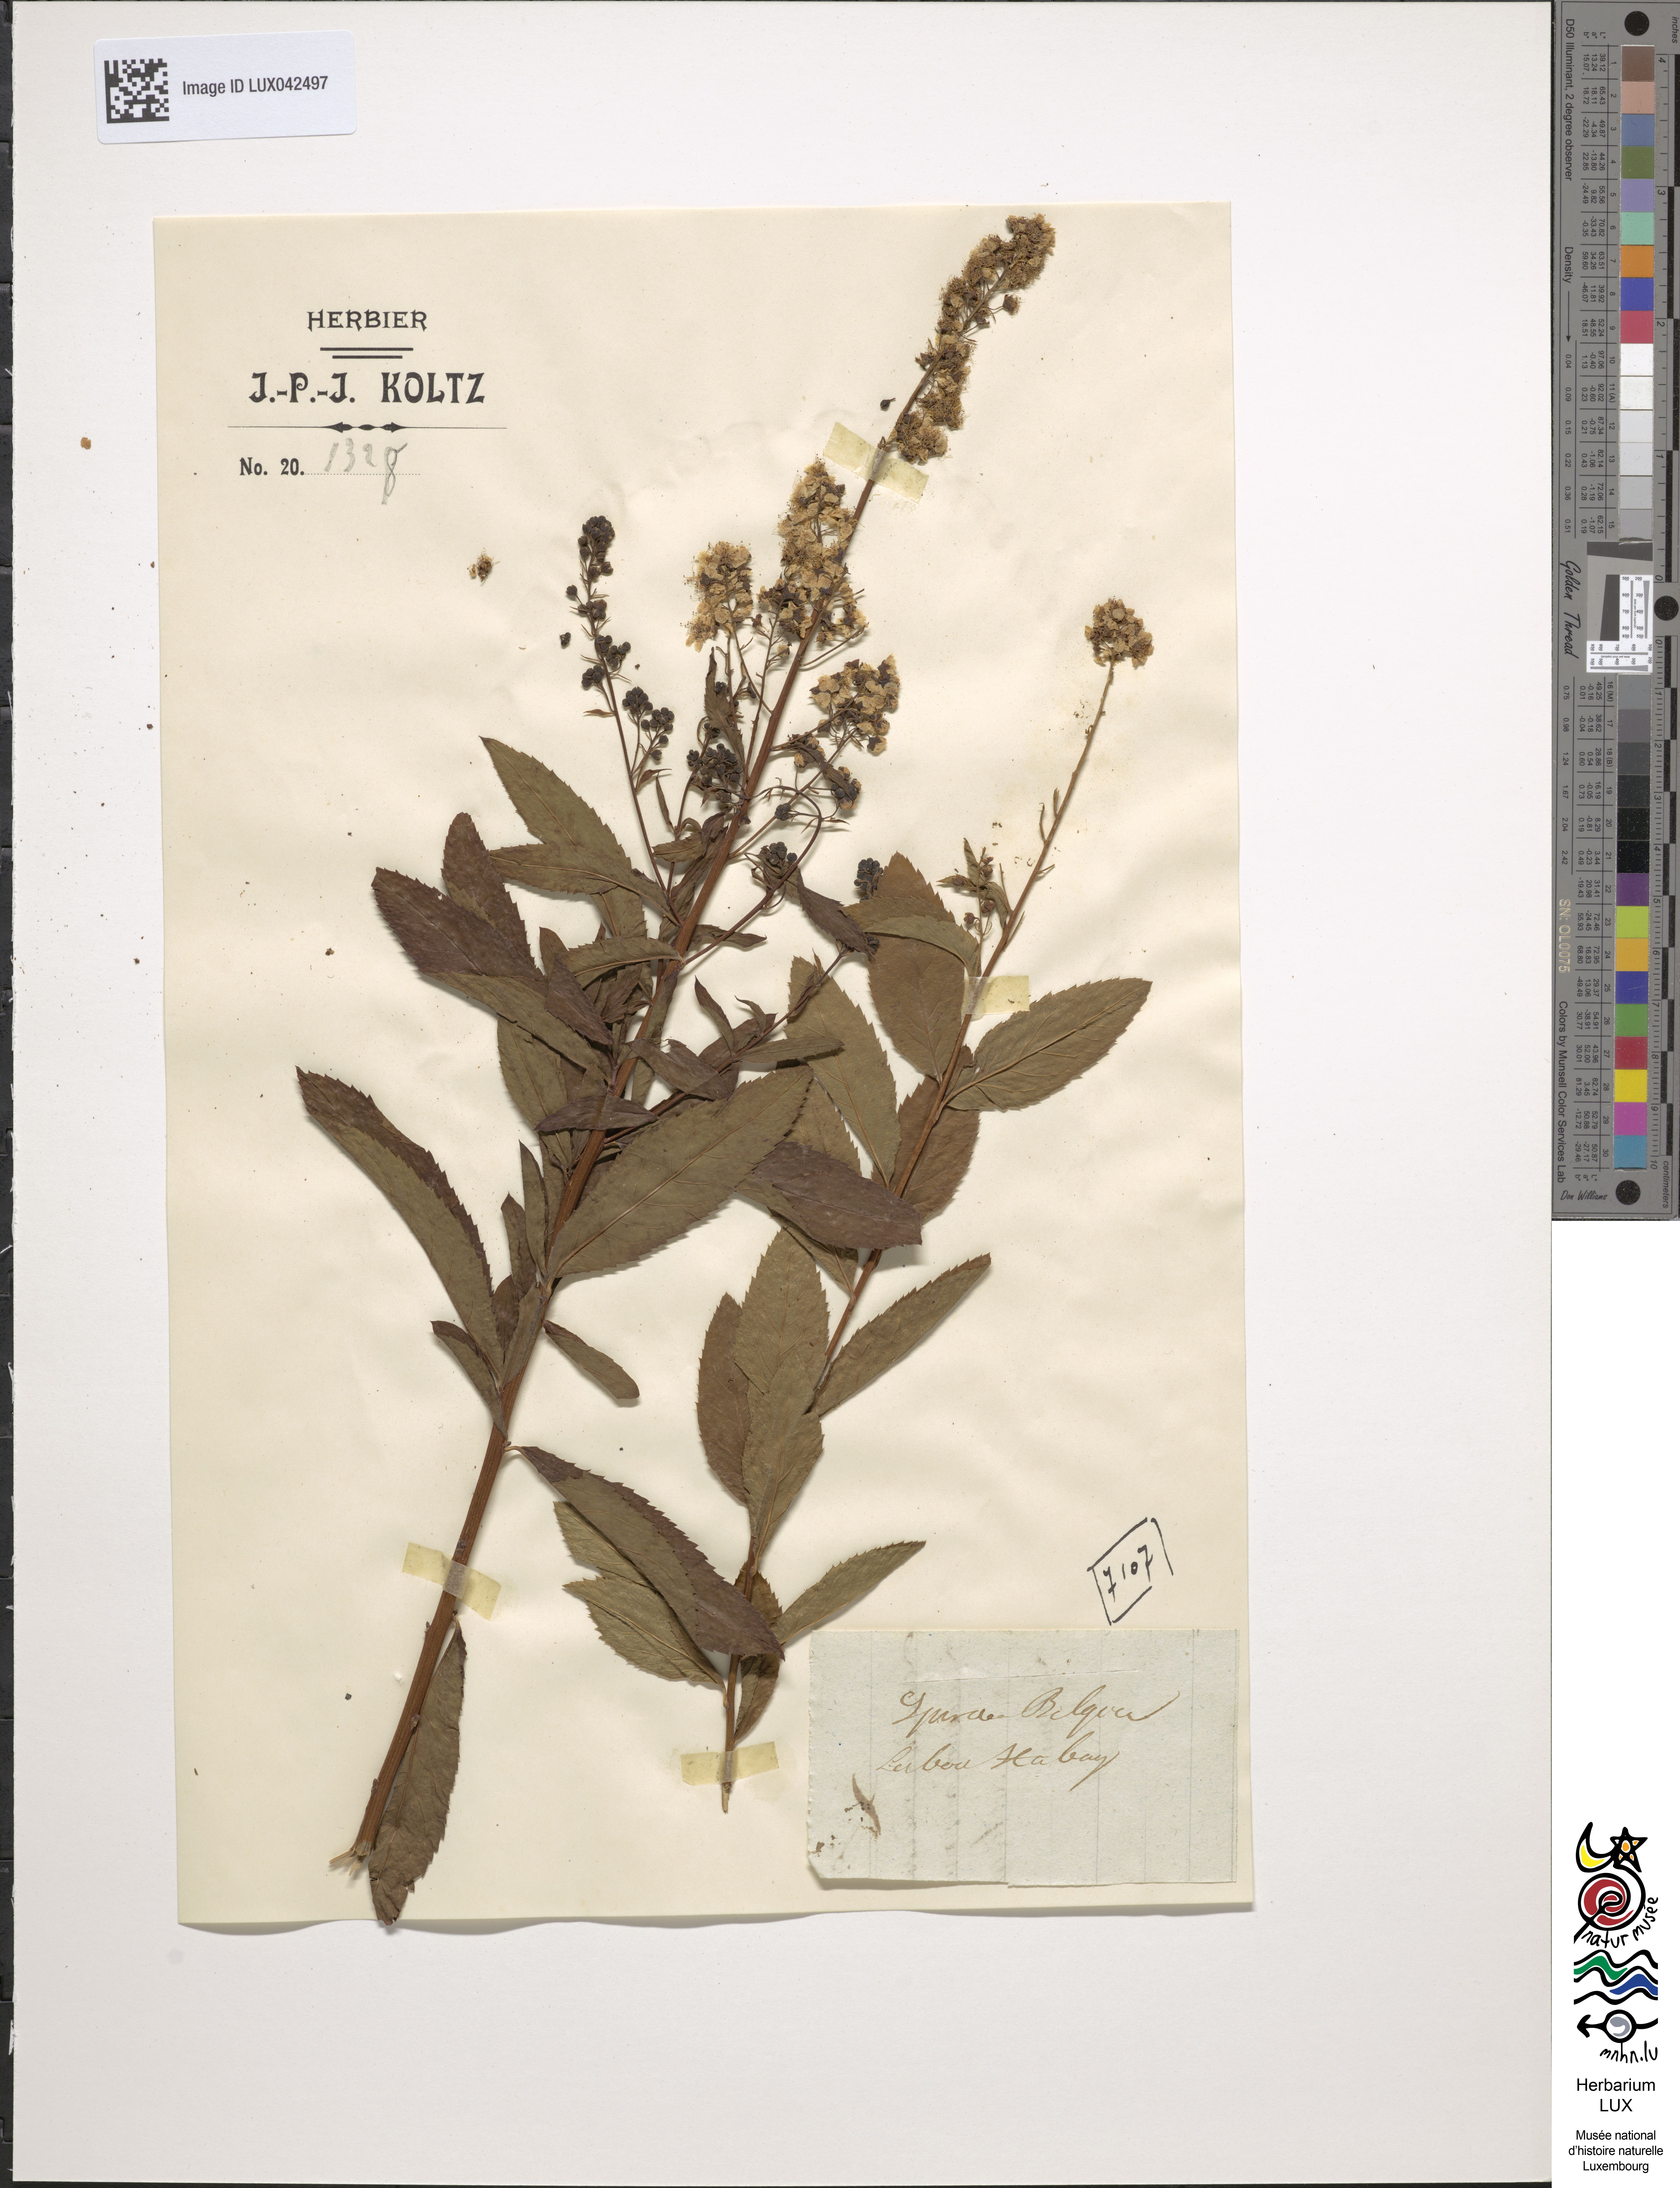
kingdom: Plantae
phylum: Tracheophyta
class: Magnoliopsida
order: Rosales
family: Rosaceae
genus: Spiraea
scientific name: Spiraea chamaedryfolia
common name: Elm-leaved spiraea
